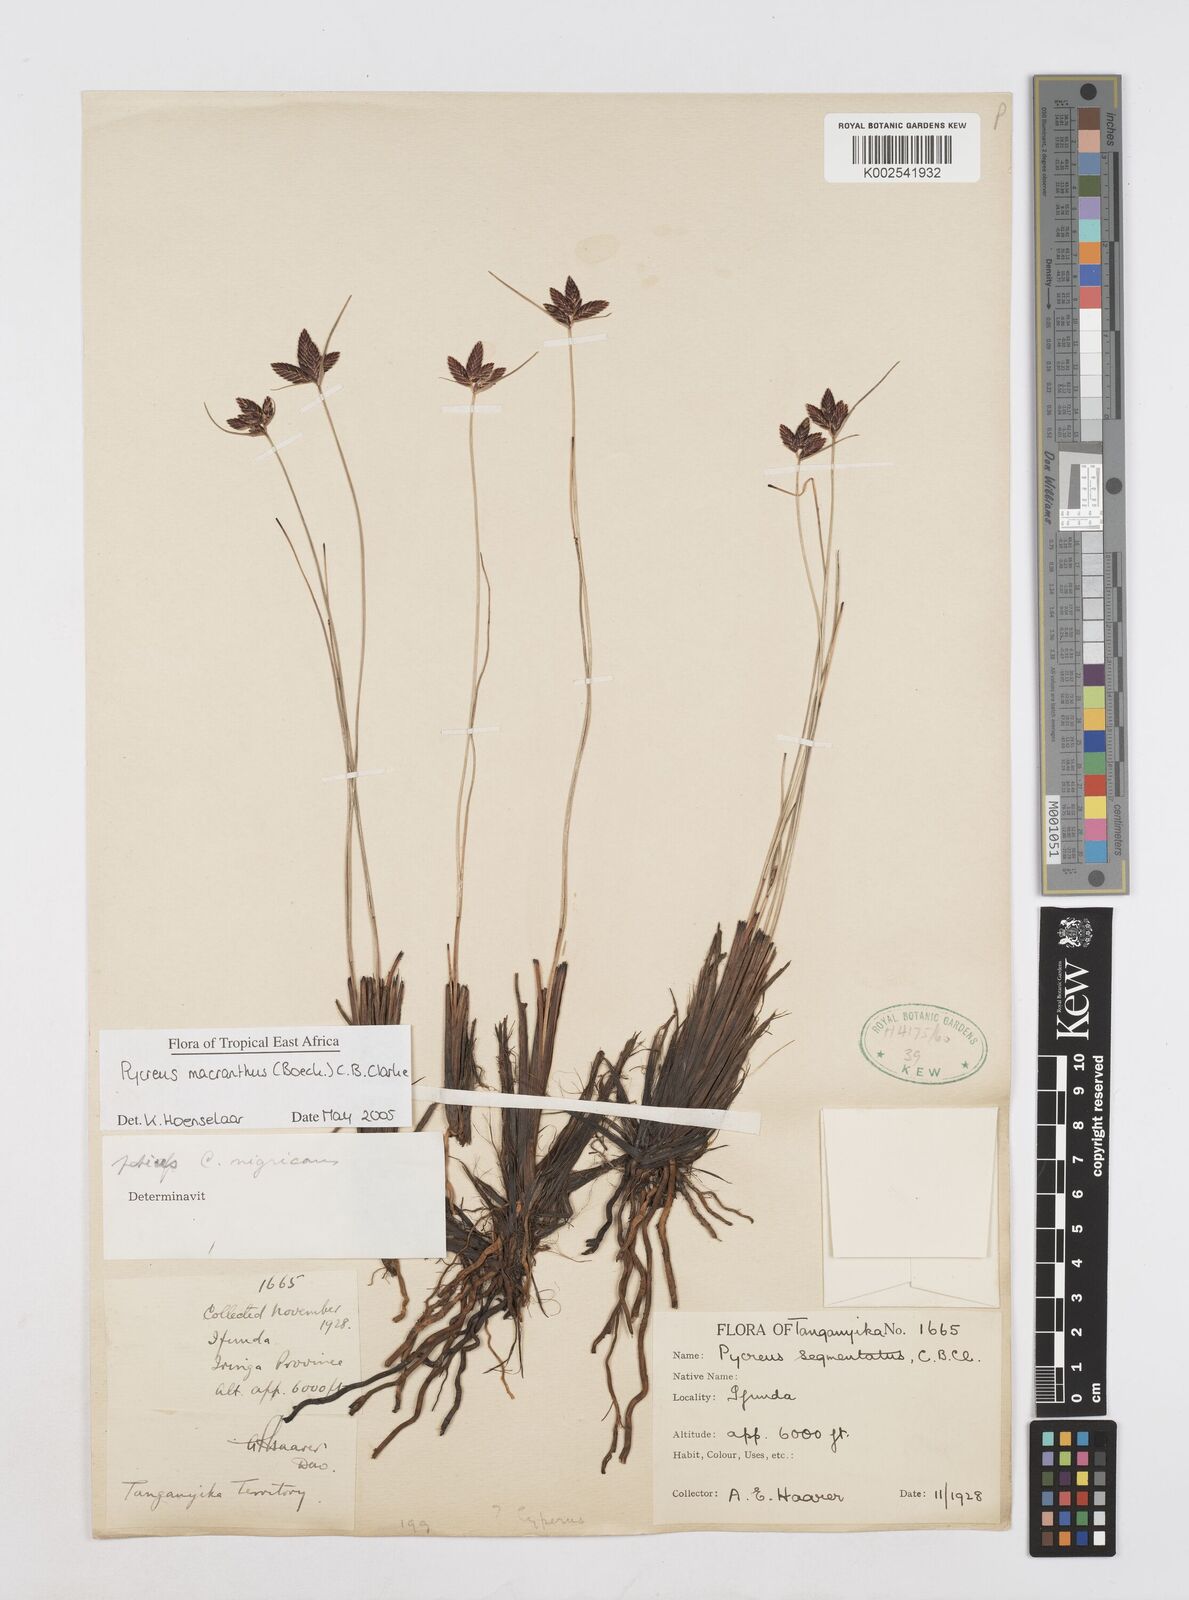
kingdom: Plantae
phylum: Tracheophyta
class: Liliopsida
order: Poales
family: Cyperaceae
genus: Cyperus
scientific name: Cyperus nigricans
